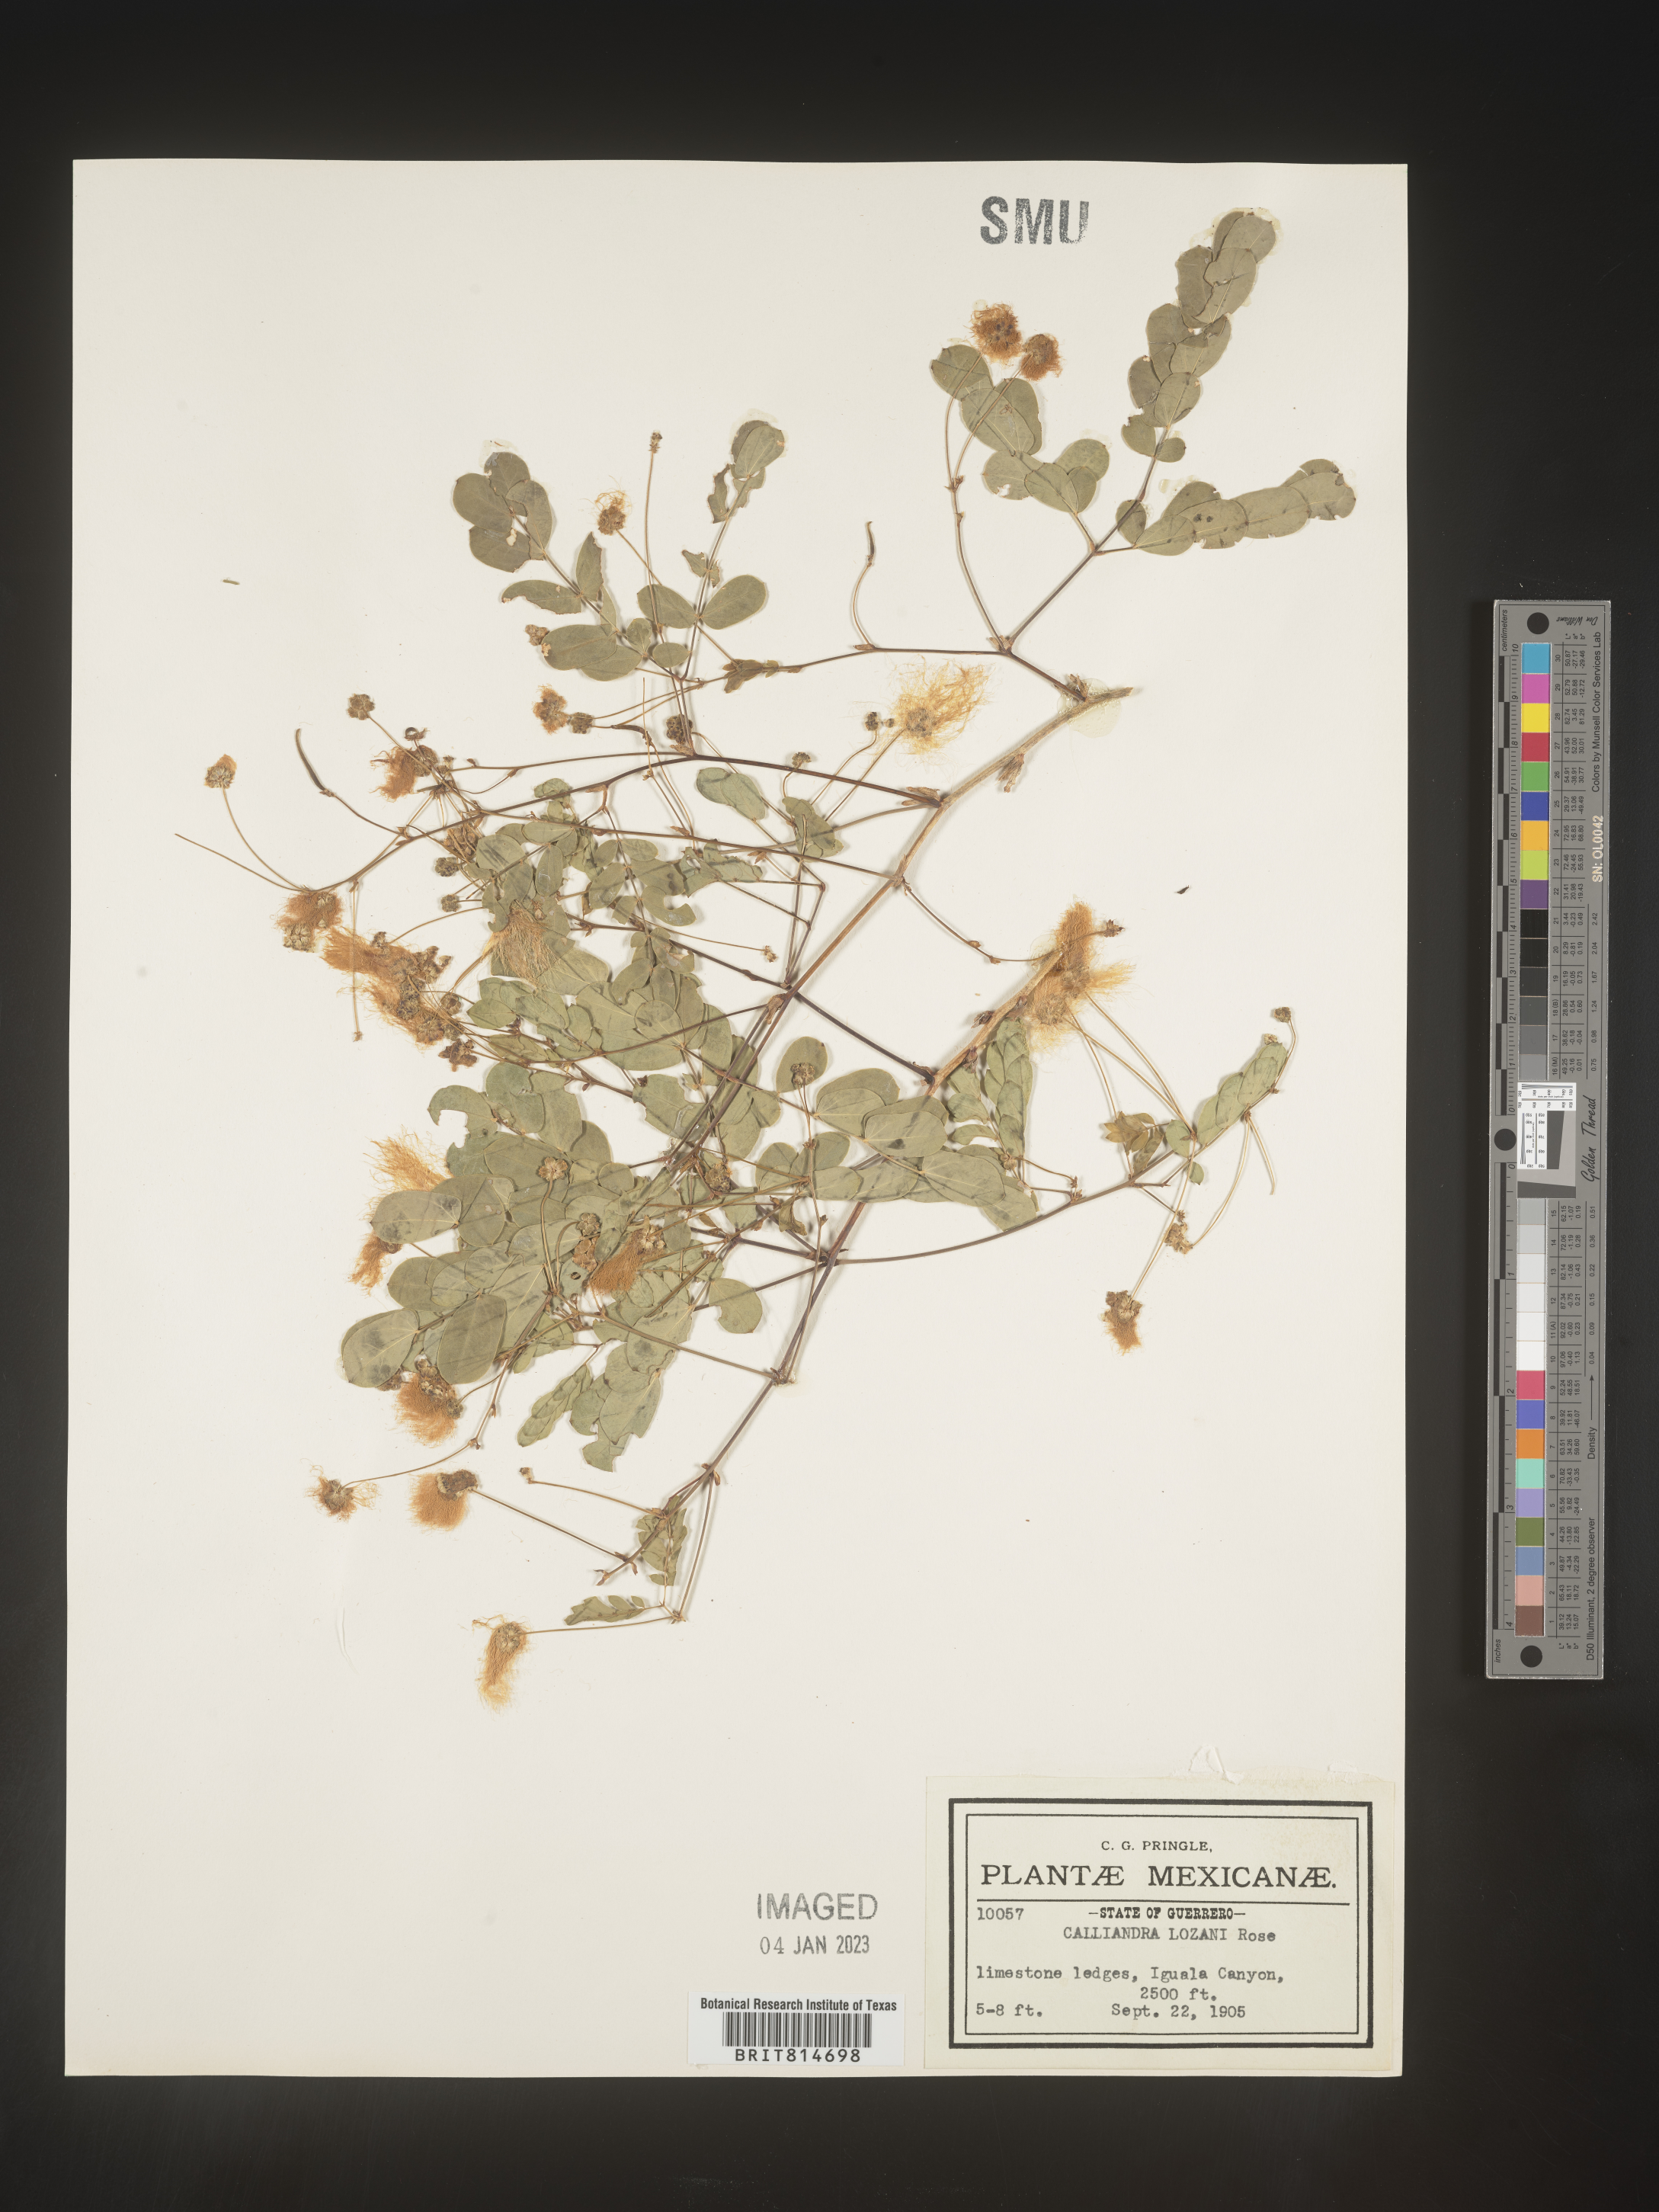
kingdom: Plantae
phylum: Tracheophyta
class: Magnoliopsida
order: Fabales
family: Fabaceae
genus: Calliandra
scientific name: Calliandra
